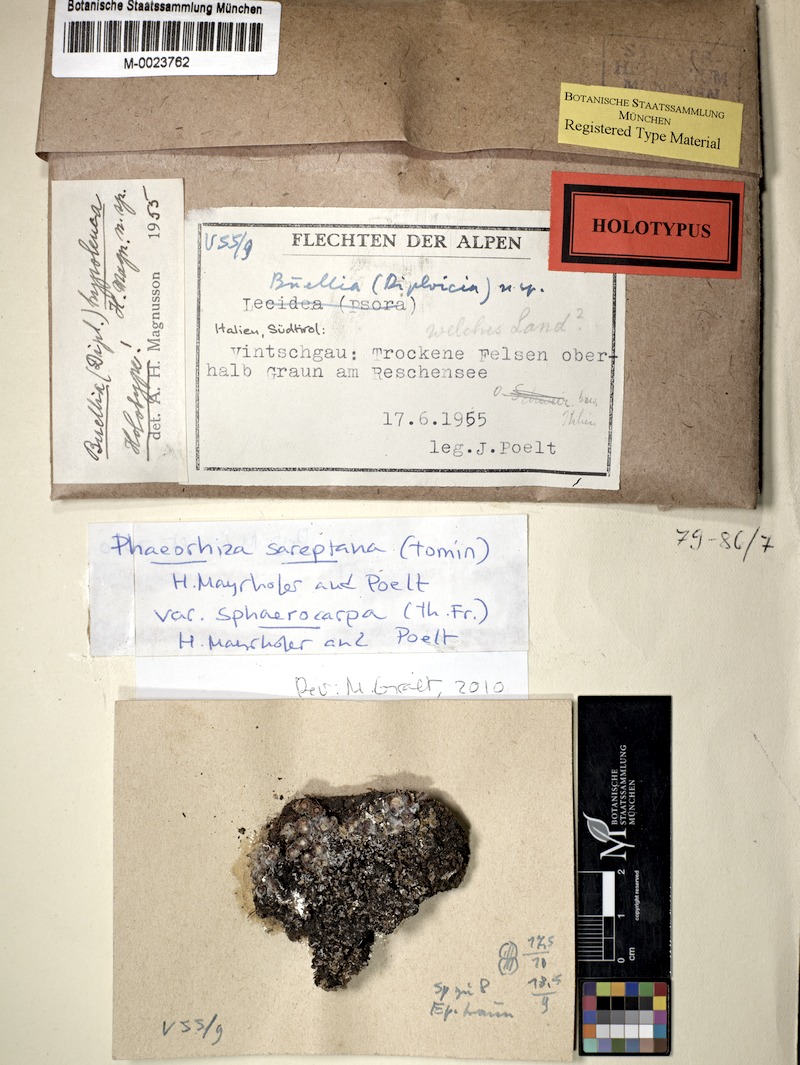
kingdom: Fungi
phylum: Ascomycota
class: Lecanoromycetes
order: Caliciales
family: Physciaceae
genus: Phaeorrhiza
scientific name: Phaeorrhiza sareptana
